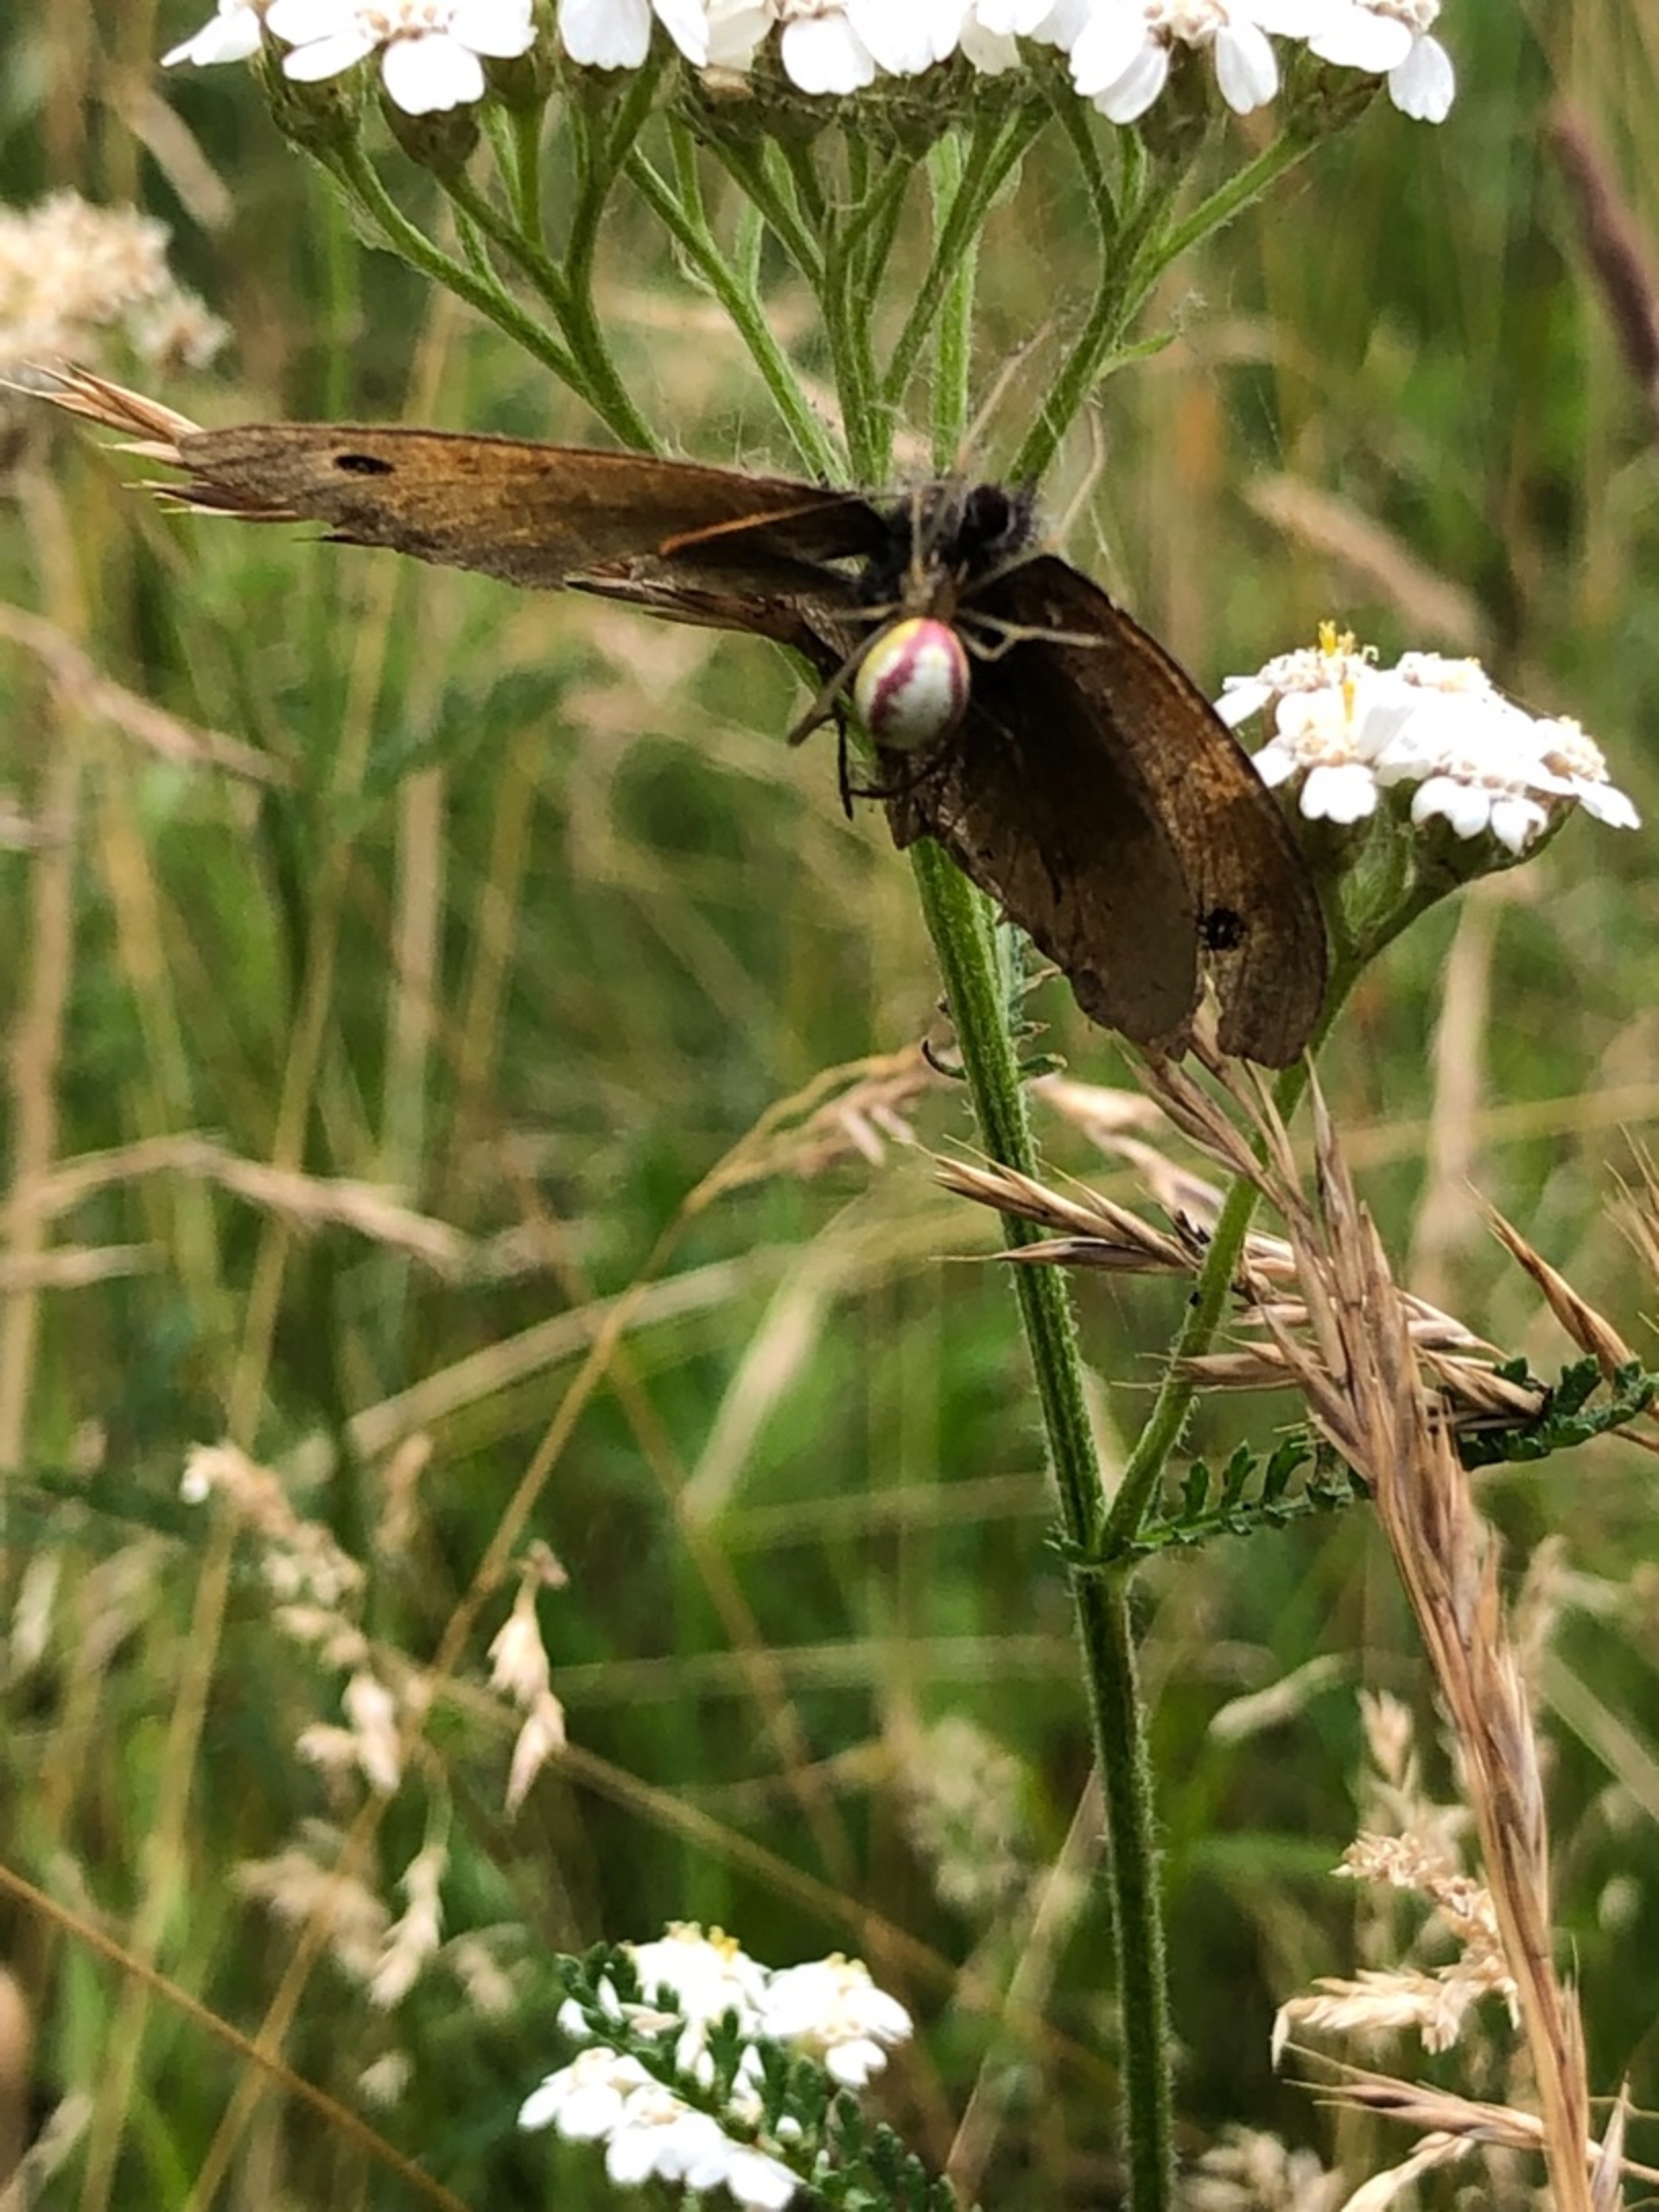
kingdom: Animalia
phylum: Arthropoda
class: Arachnida
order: Araneae
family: Theridiidae
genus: Enoplognatha
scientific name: Enoplognatha ovata
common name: Perleedderkop
